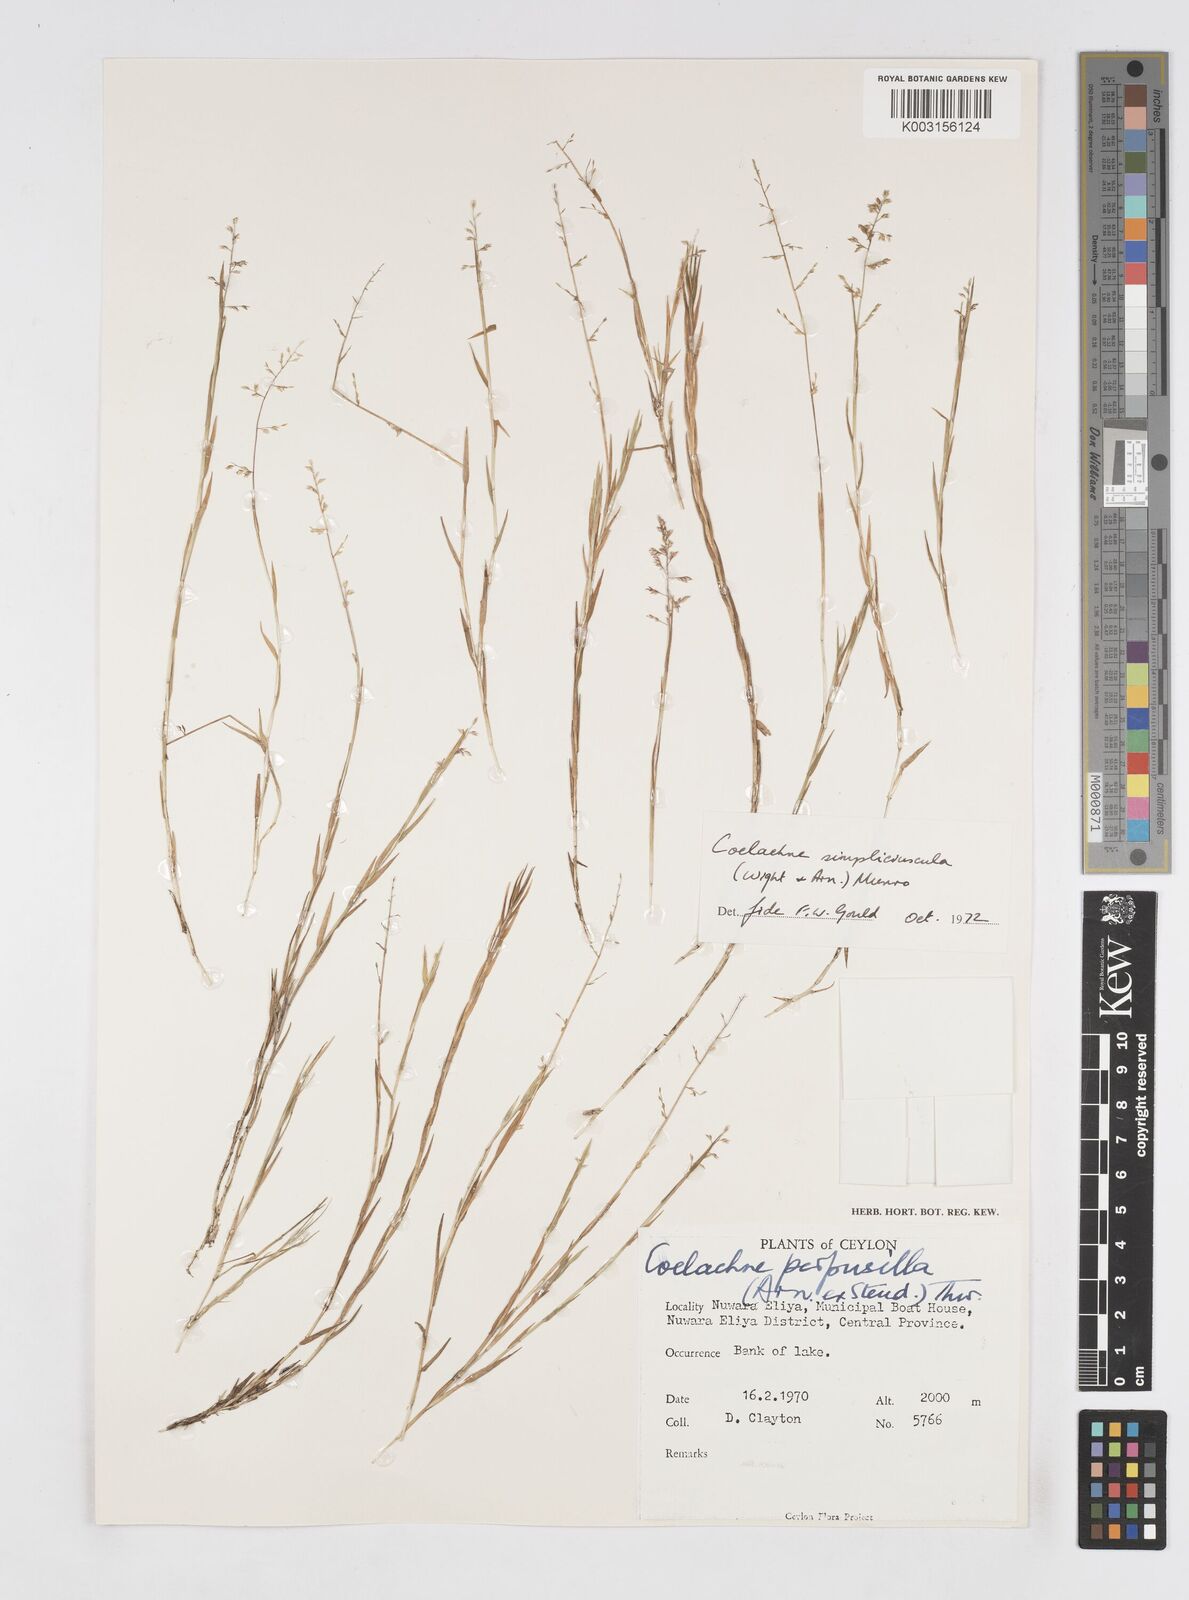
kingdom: Plantae
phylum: Tracheophyta
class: Liliopsida
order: Poales
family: Poaceae
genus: Coelachne
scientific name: Coelachne simpliciuscula
